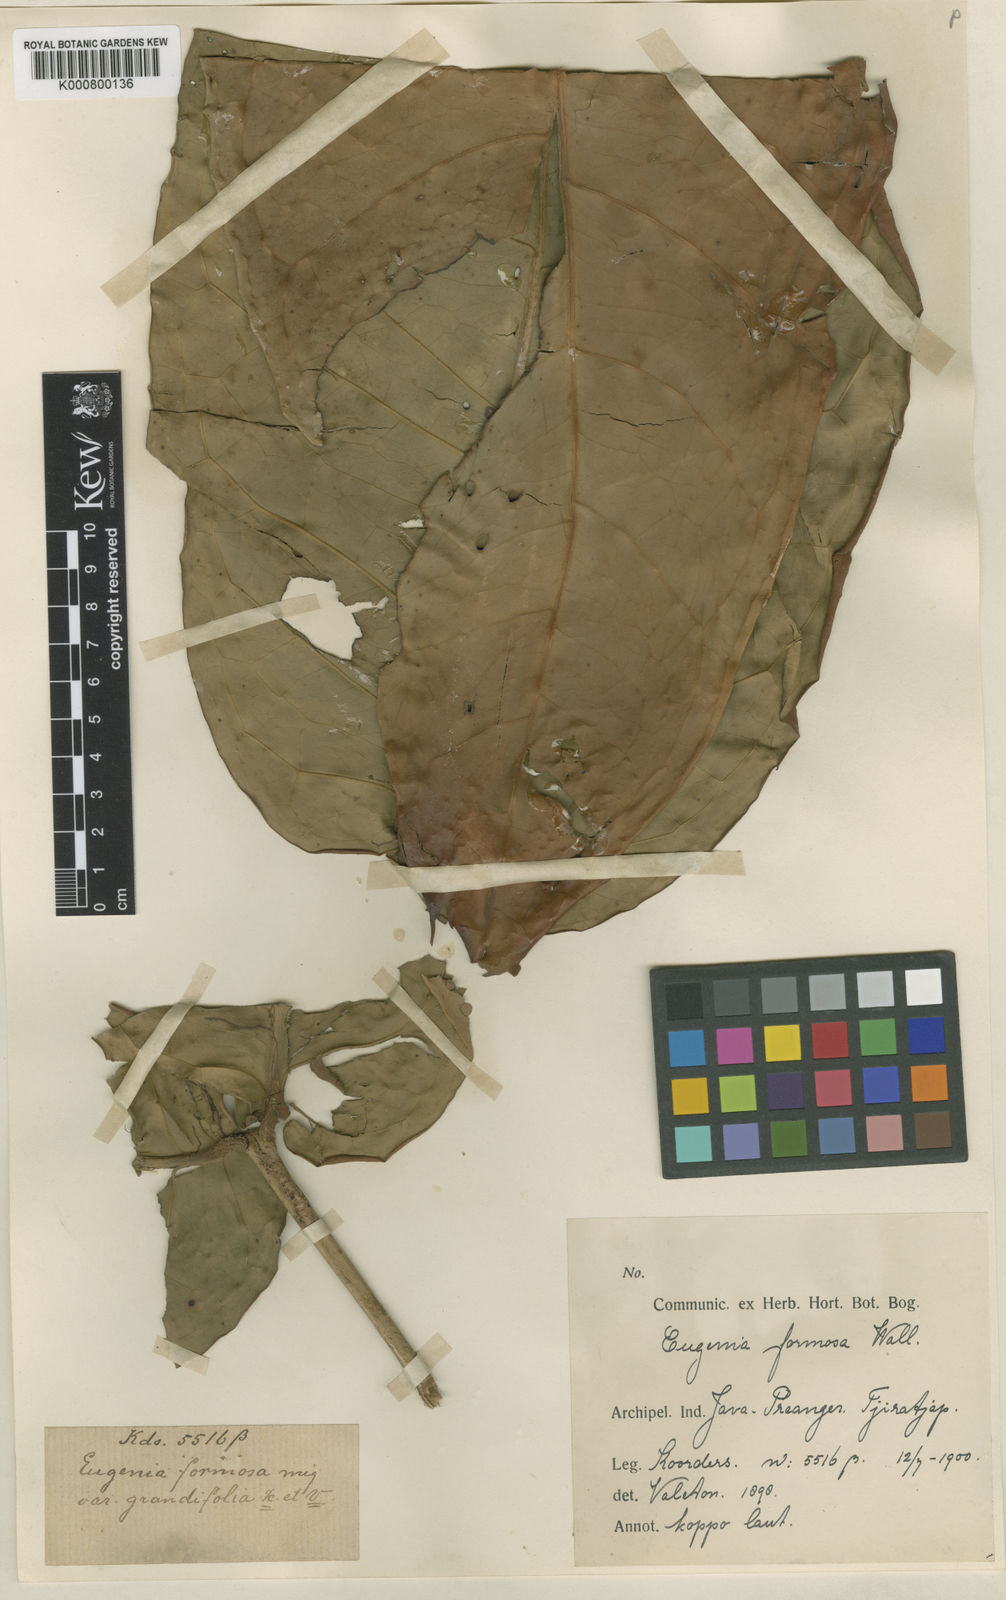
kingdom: Plantae
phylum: Tracheophyta
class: Magnoliopsida
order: Myrtales
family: Myrtaceae
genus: Syzygium
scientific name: Syzygium formosum
